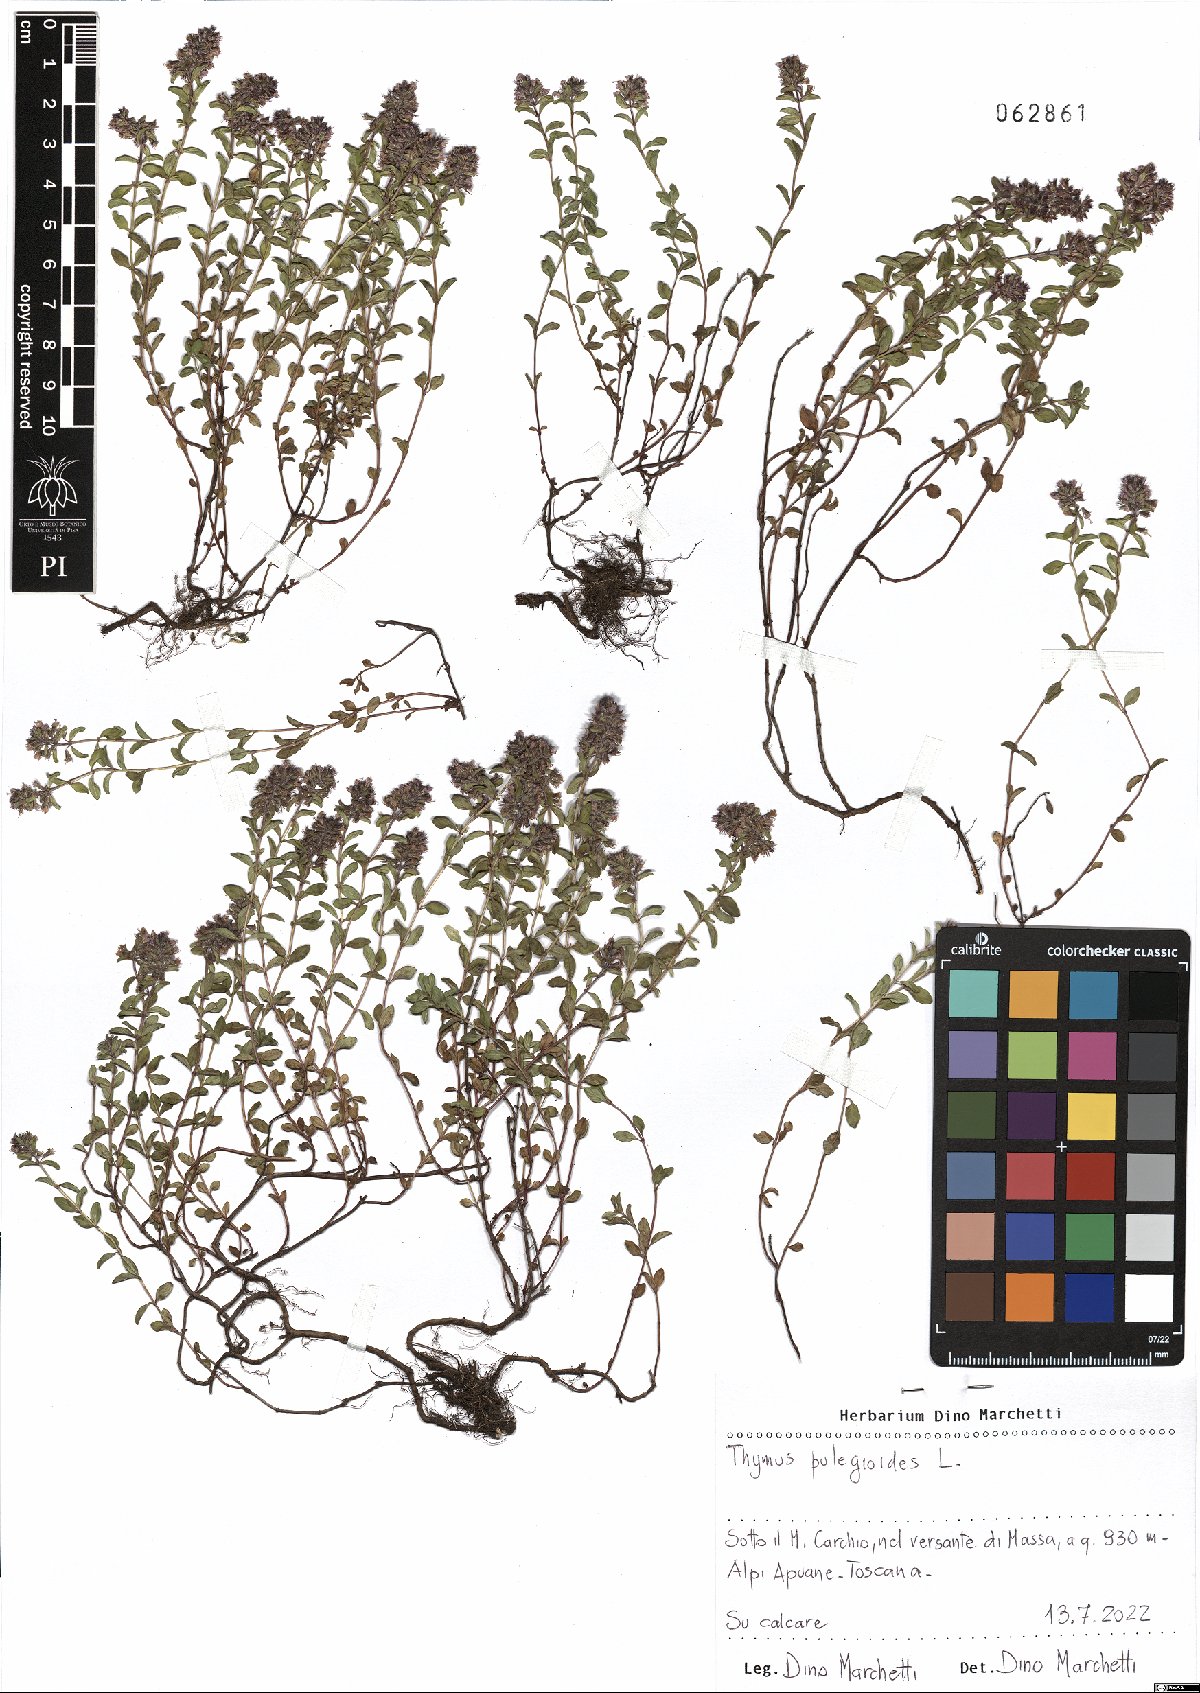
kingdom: Plantae
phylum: Tracheophyta
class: Magnoliopsida
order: Lamiales
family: Lamiaceae
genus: Thymus
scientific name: Thymus pulegioides
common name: Large thyme
